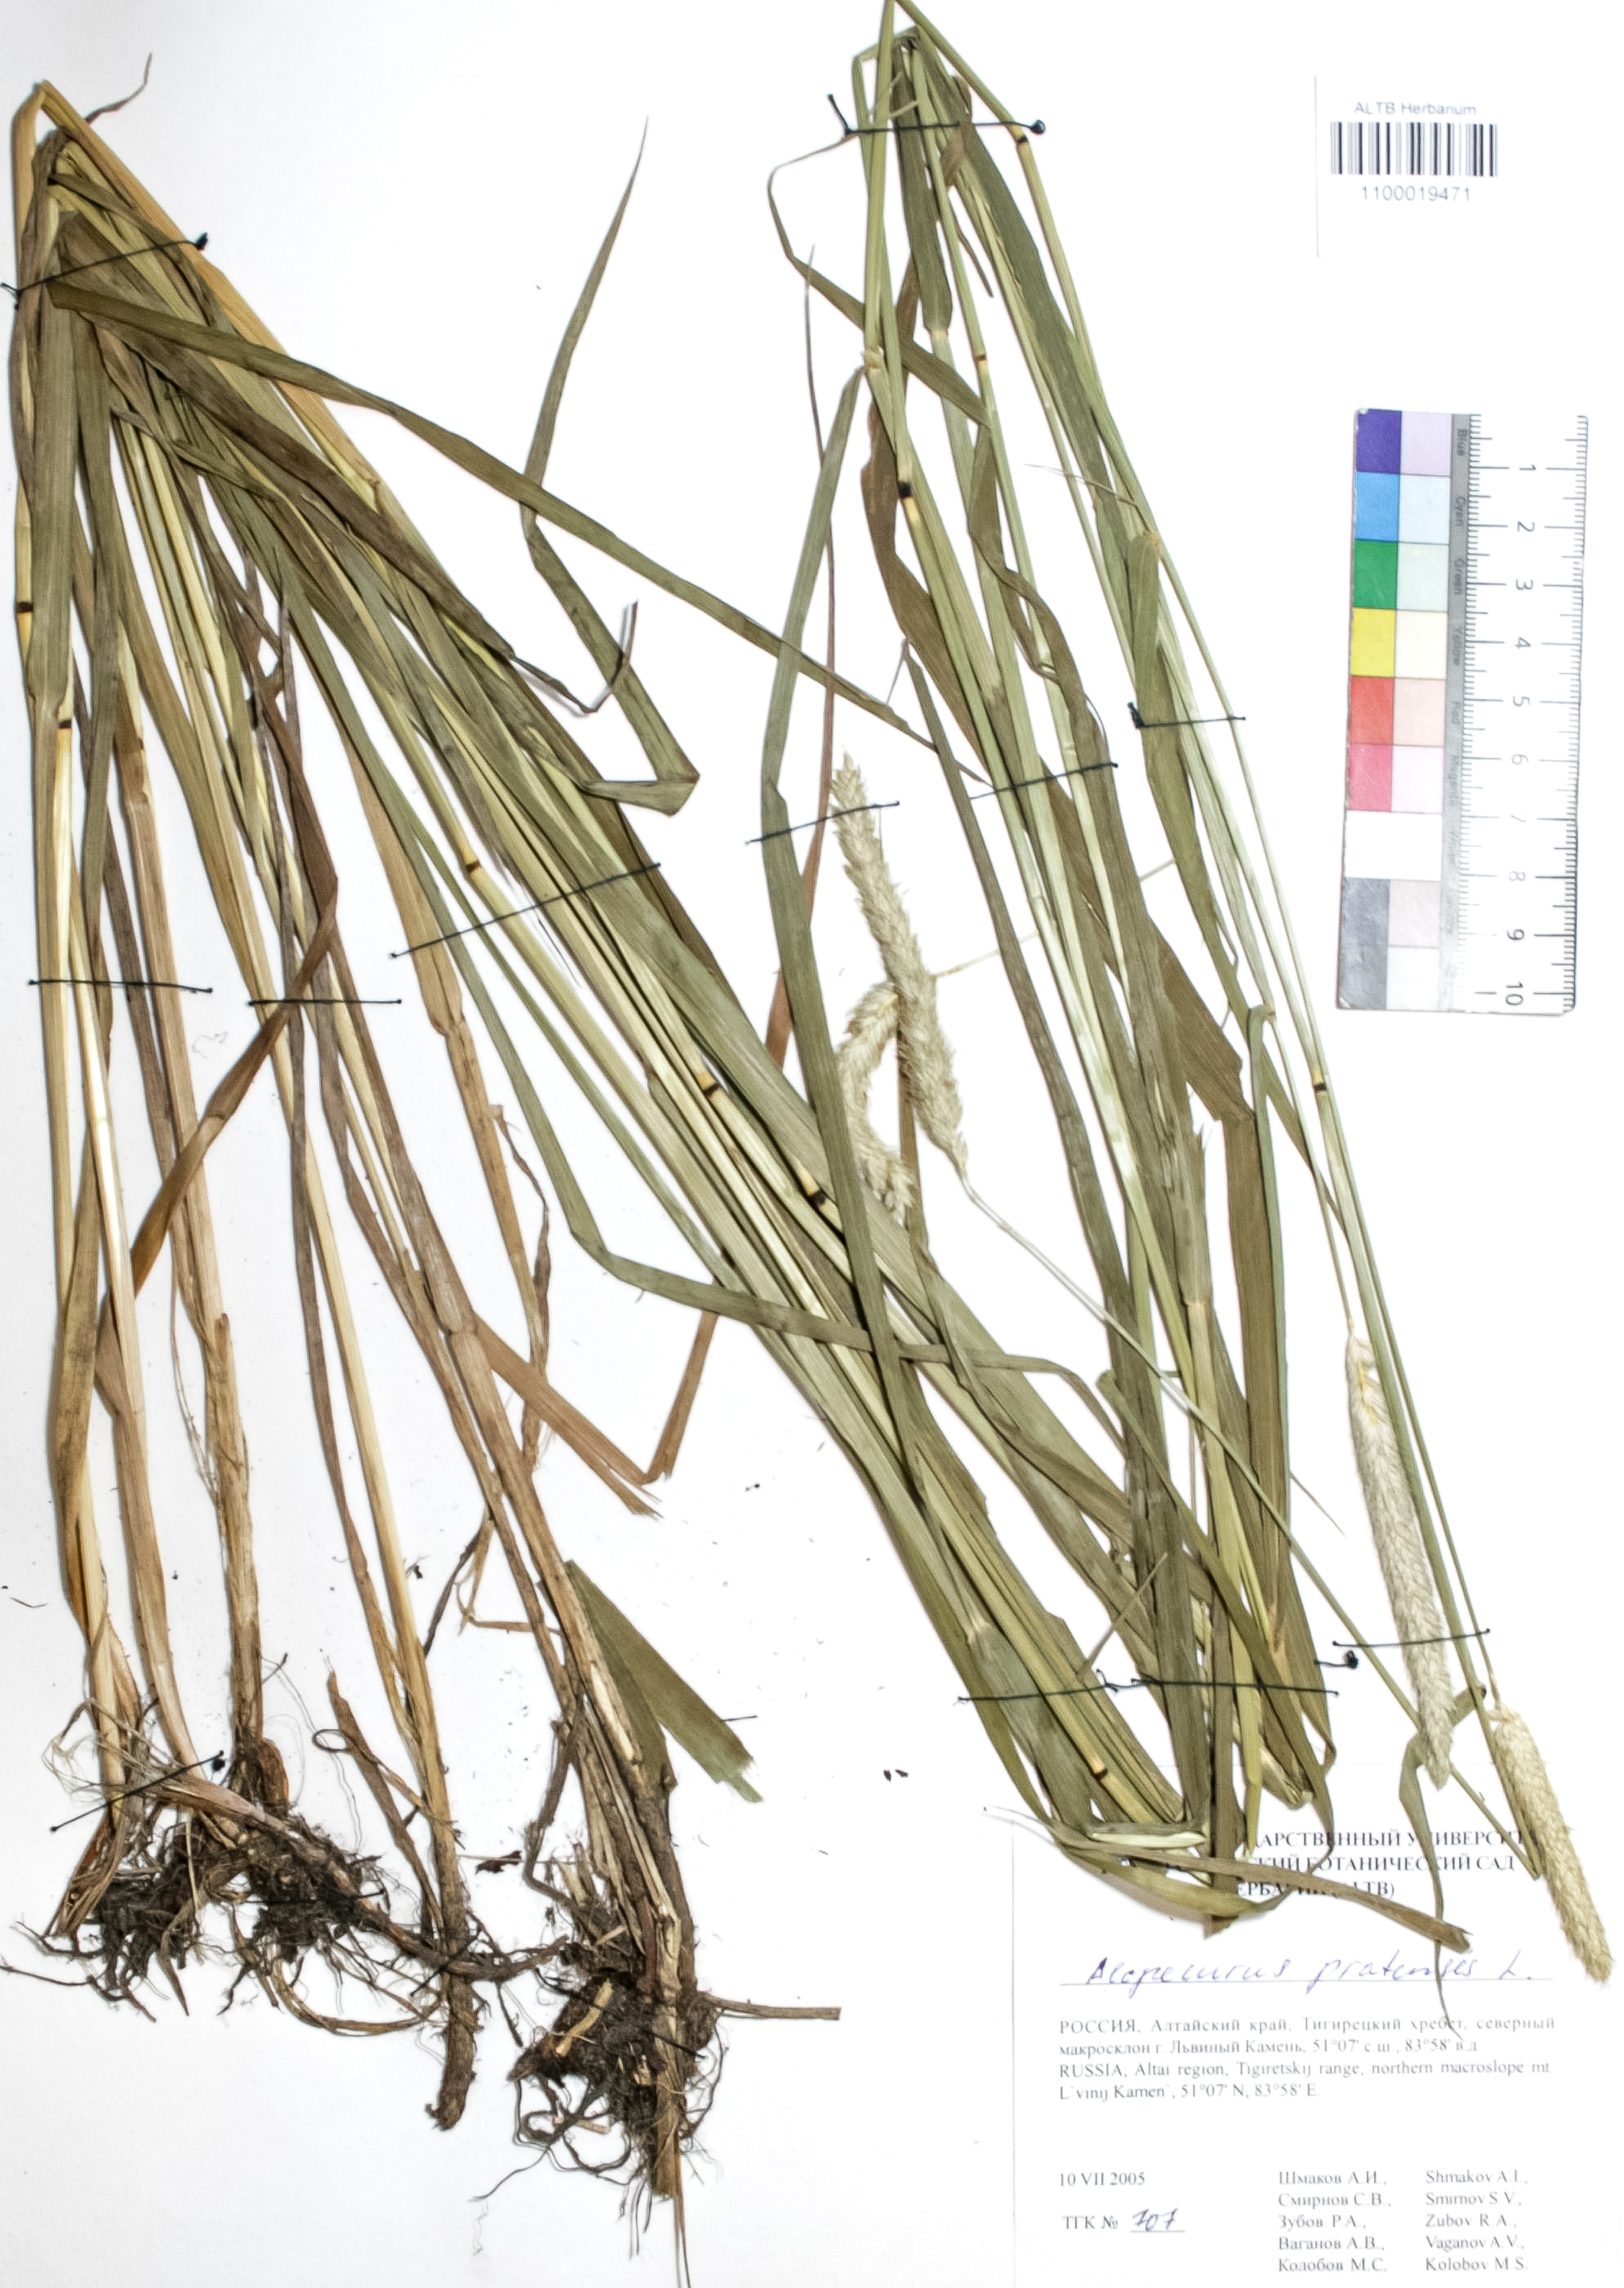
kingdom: Plantae
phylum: Tracheophyta
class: Liliopsida
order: Poales
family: Poaceae
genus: Alopecurus
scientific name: Alopecurus pratensis
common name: Meadow foxtail
